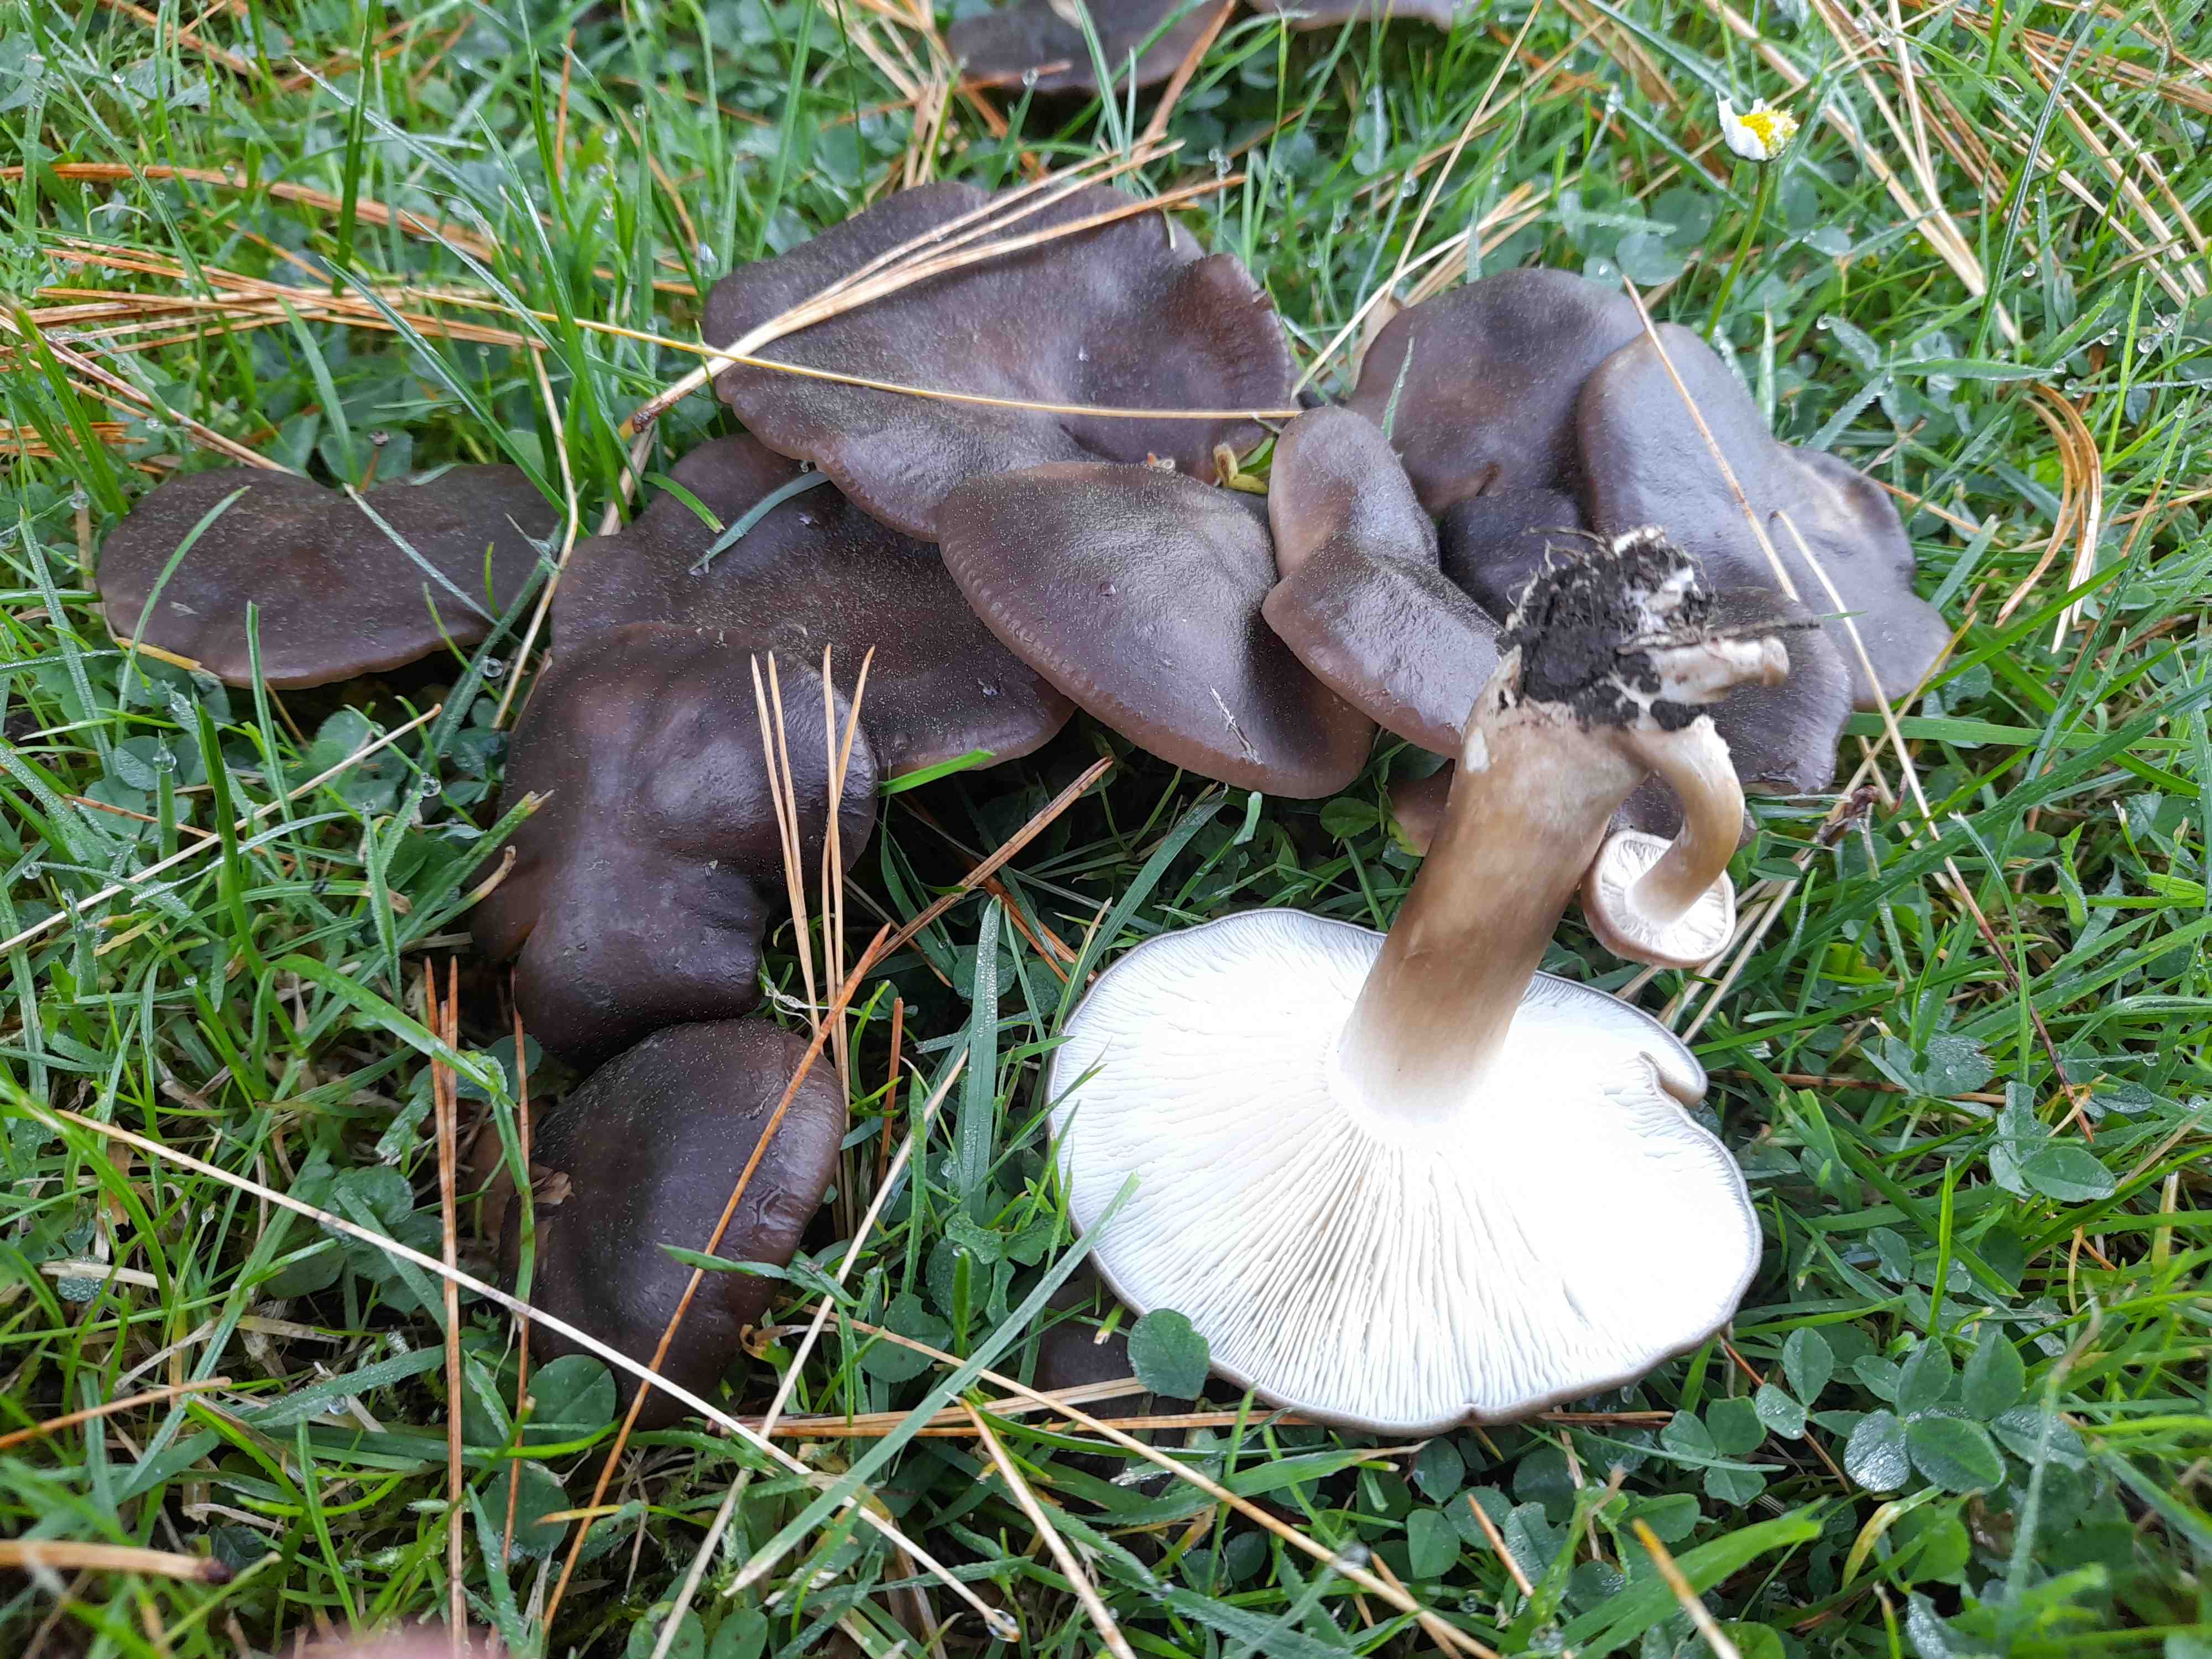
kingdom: Fungi
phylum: Basidiomycota
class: Agaricomycetes
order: Agaricales
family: Lyophyllaceae
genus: Lyophyllum
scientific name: Lyophyllum decastes
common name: Clustered domecap
